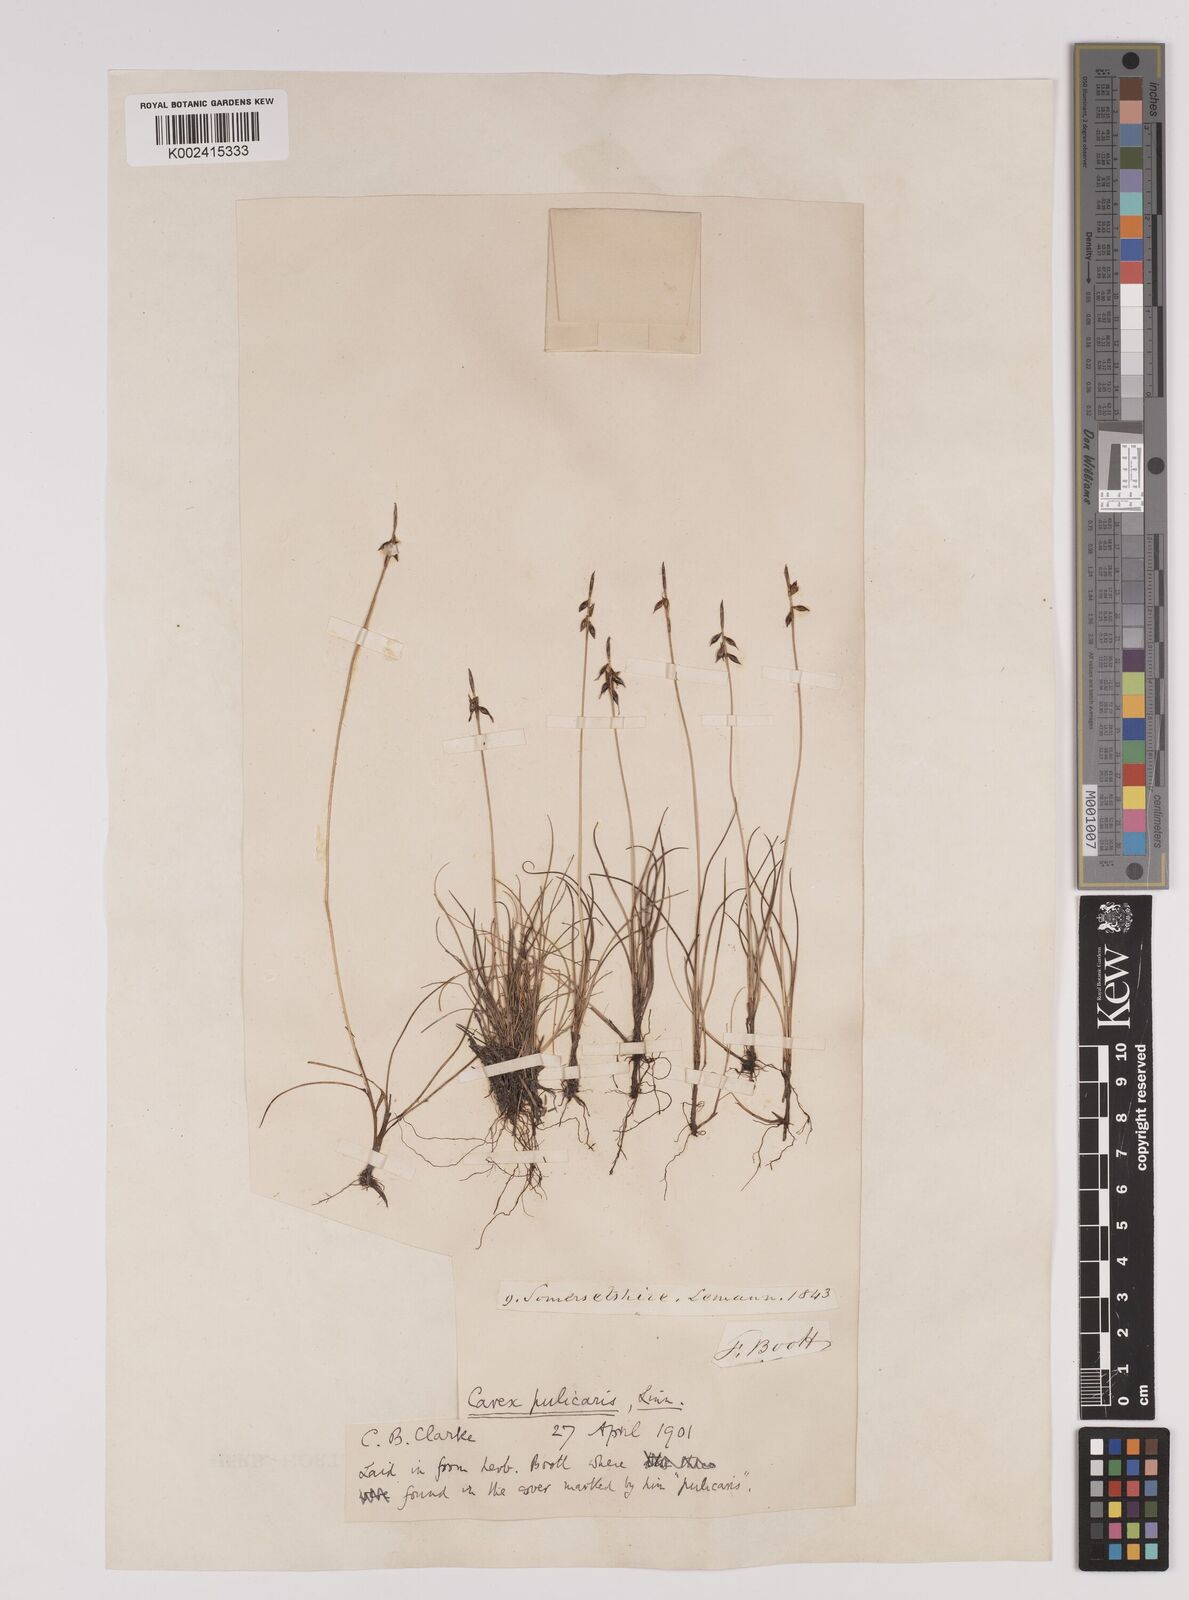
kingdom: Plantae
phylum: Tracheophyta
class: Liliopsida
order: Poales
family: Cyperaceae
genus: Carex
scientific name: Carex pulicaris
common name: Flea sedge
